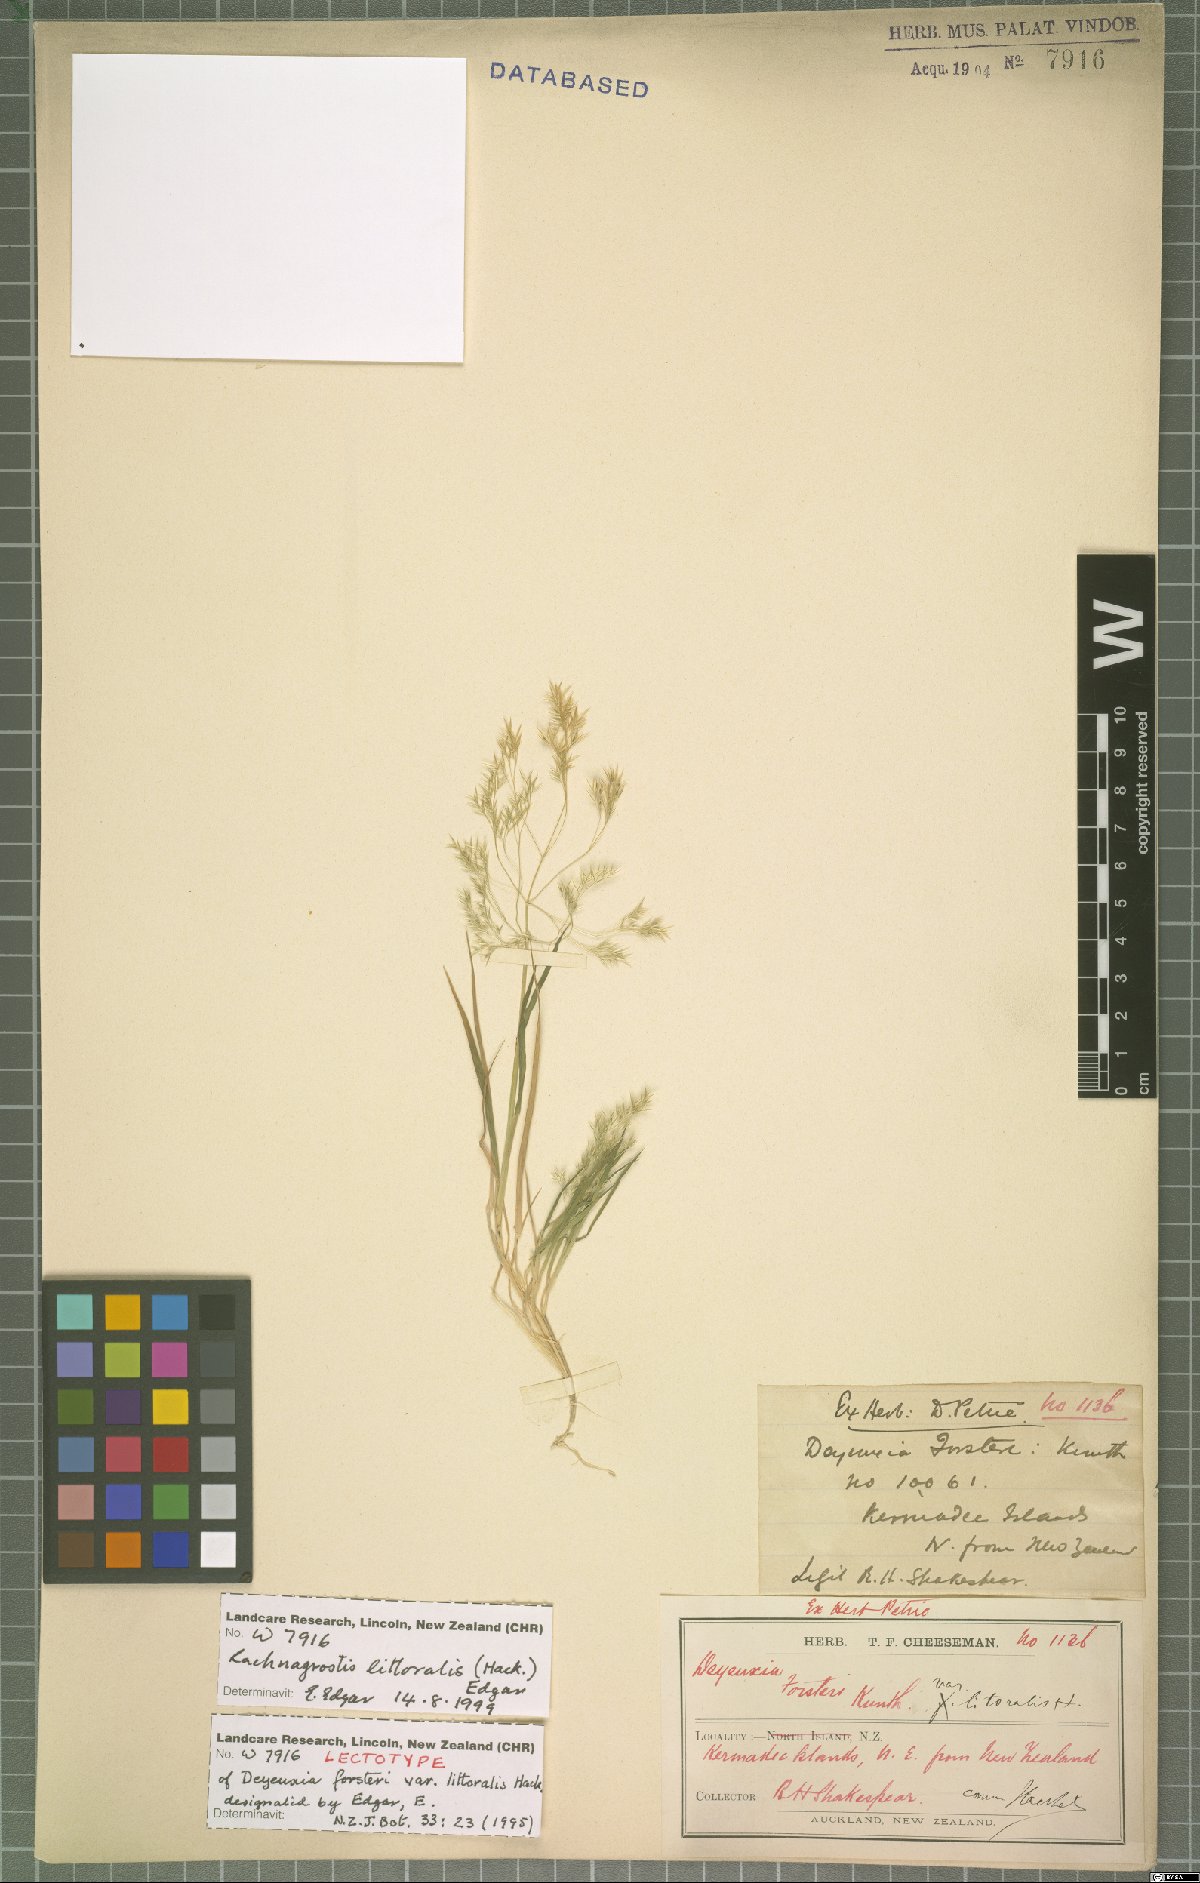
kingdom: Plantae
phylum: Tracheophyta
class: Liliopsida
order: Poales
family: Poaceae
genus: Lachnagrostis
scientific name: Lachnagrostis littoralis
